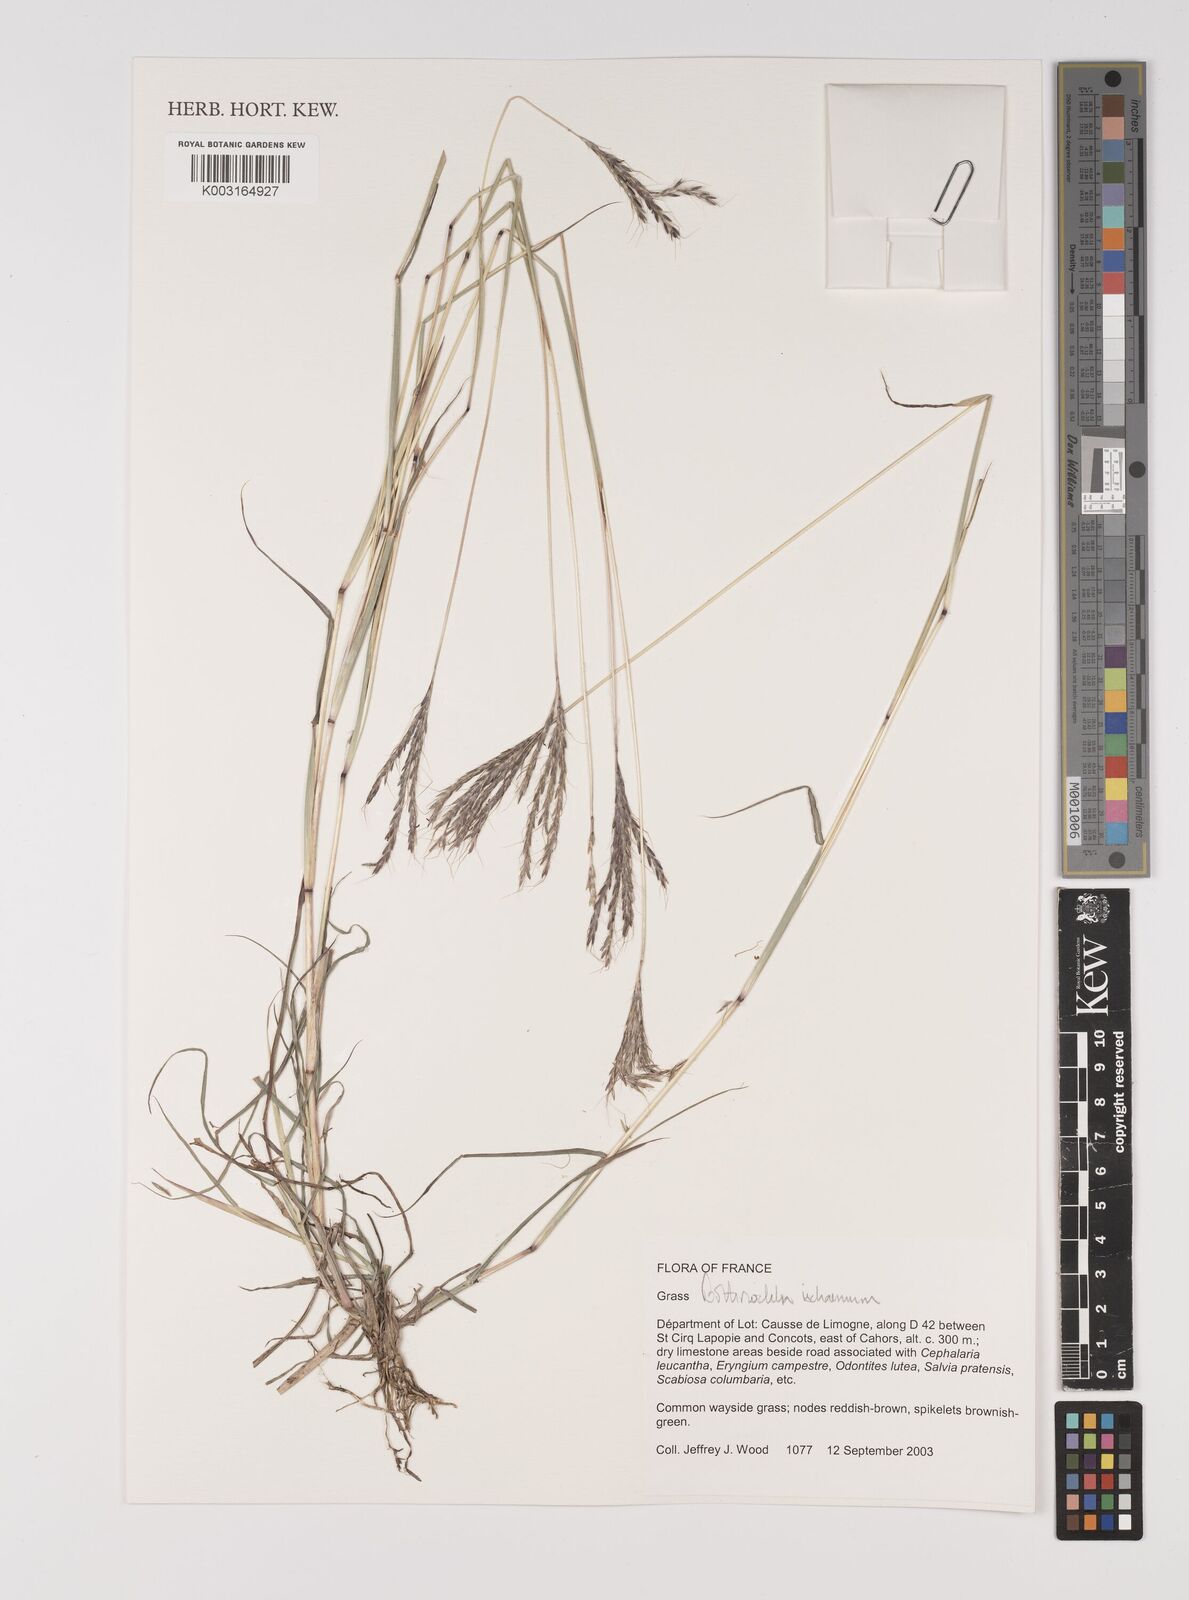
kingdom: Plantae
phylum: Tracheophyta
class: Liliopsida
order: Poales
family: Poaceae
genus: Bothriochloa
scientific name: Bothriochloa ischaemum
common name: Yellow bluestem
